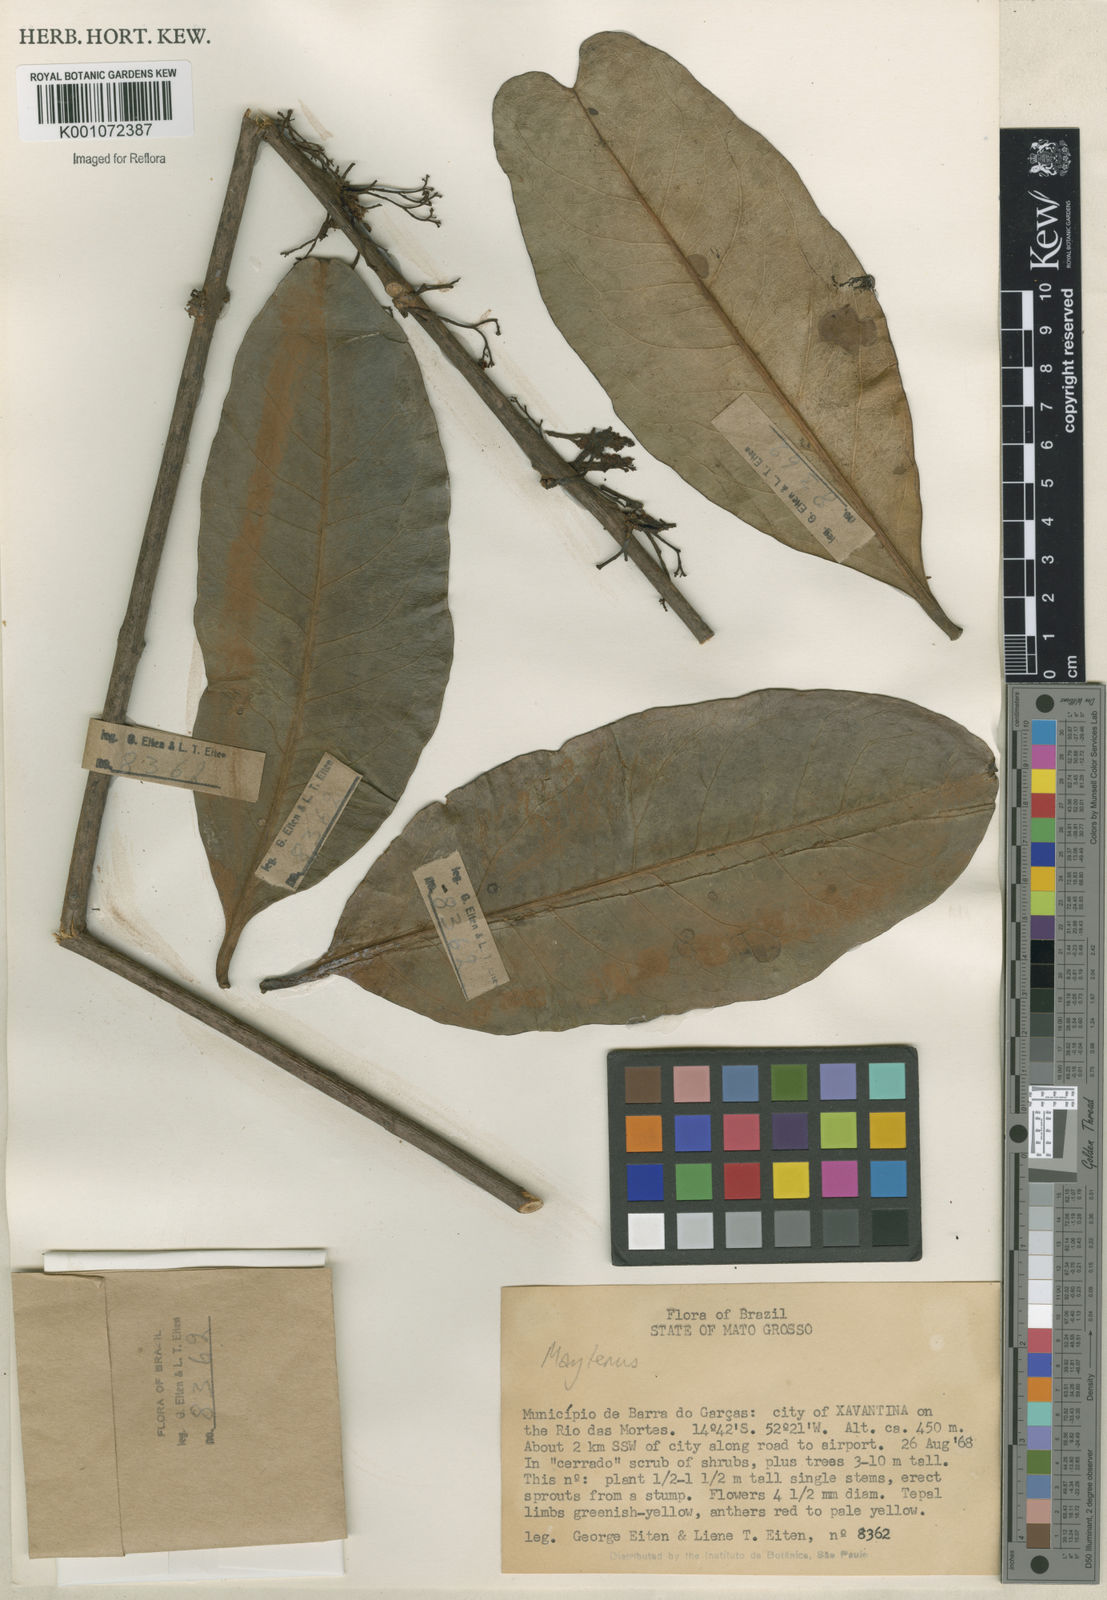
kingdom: Plantae
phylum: Tracheophyta
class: Magnoliopsida
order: Celastrales
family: Celastraceae
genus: Maytenus
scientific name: Maytenus
